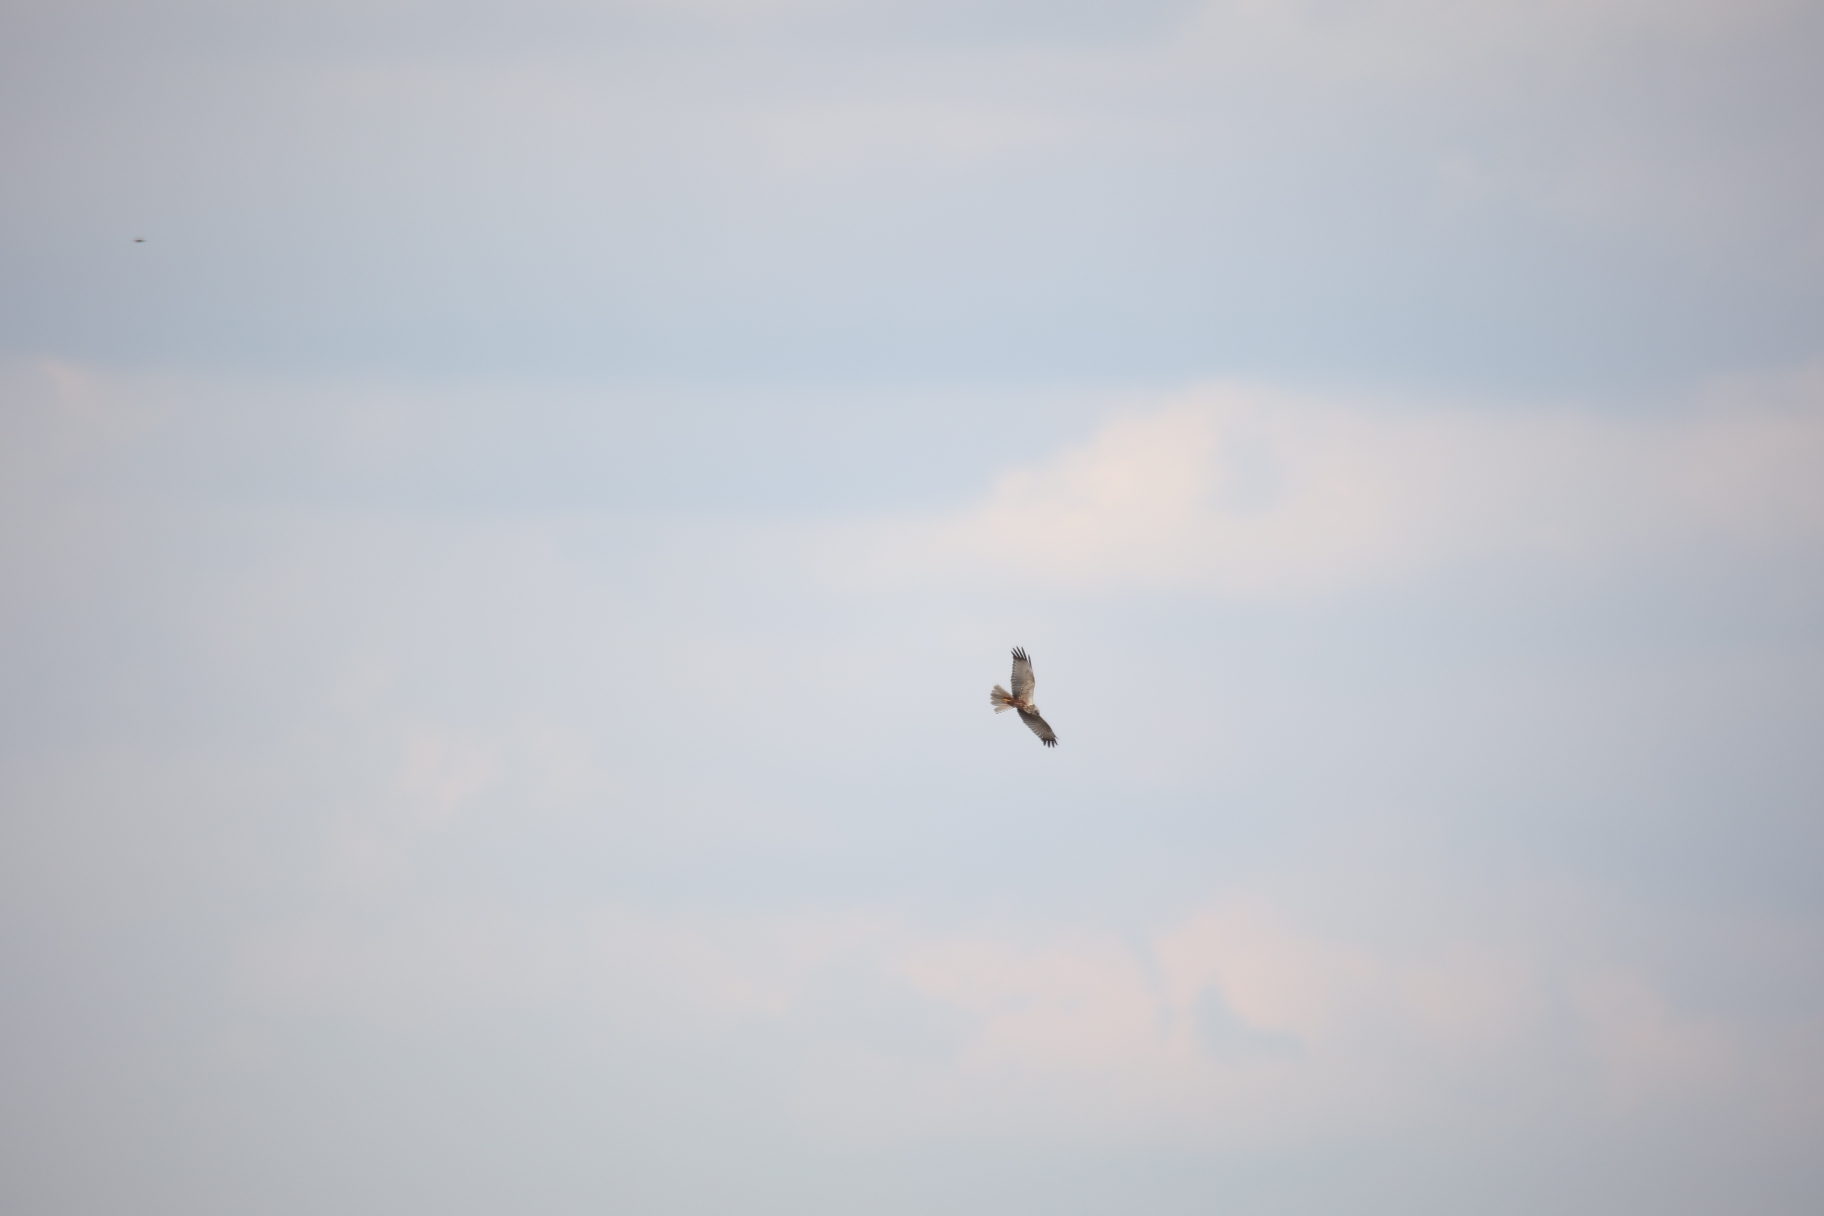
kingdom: Animalia
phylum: Chordata
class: Aves
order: Accipitriformes
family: Accipitridae
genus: Circus
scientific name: Circus aeruginosus
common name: Rørhøg
